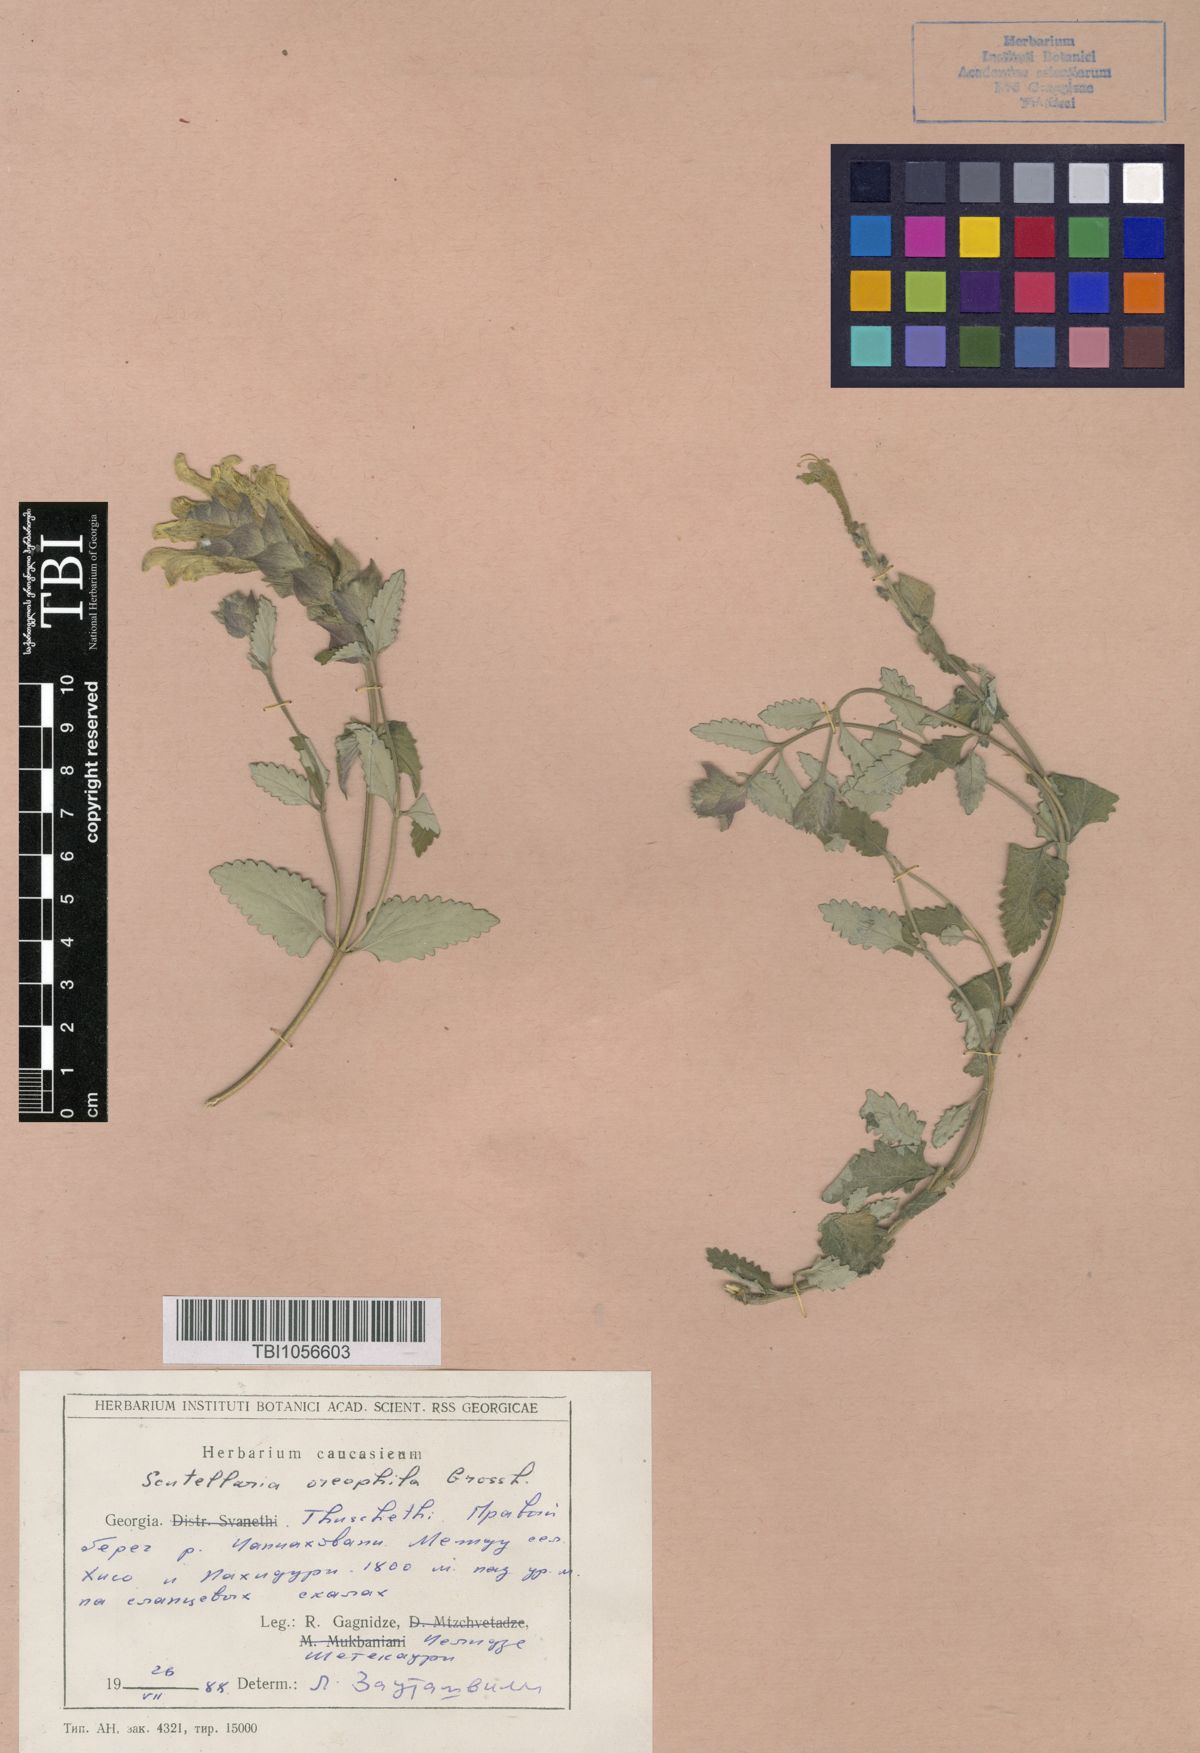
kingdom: Plantae
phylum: Tracheophyta
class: Magnoliopsida
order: Lamiales
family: Lamiaceae
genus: Scutellaria
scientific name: Scutellaria oreophila
